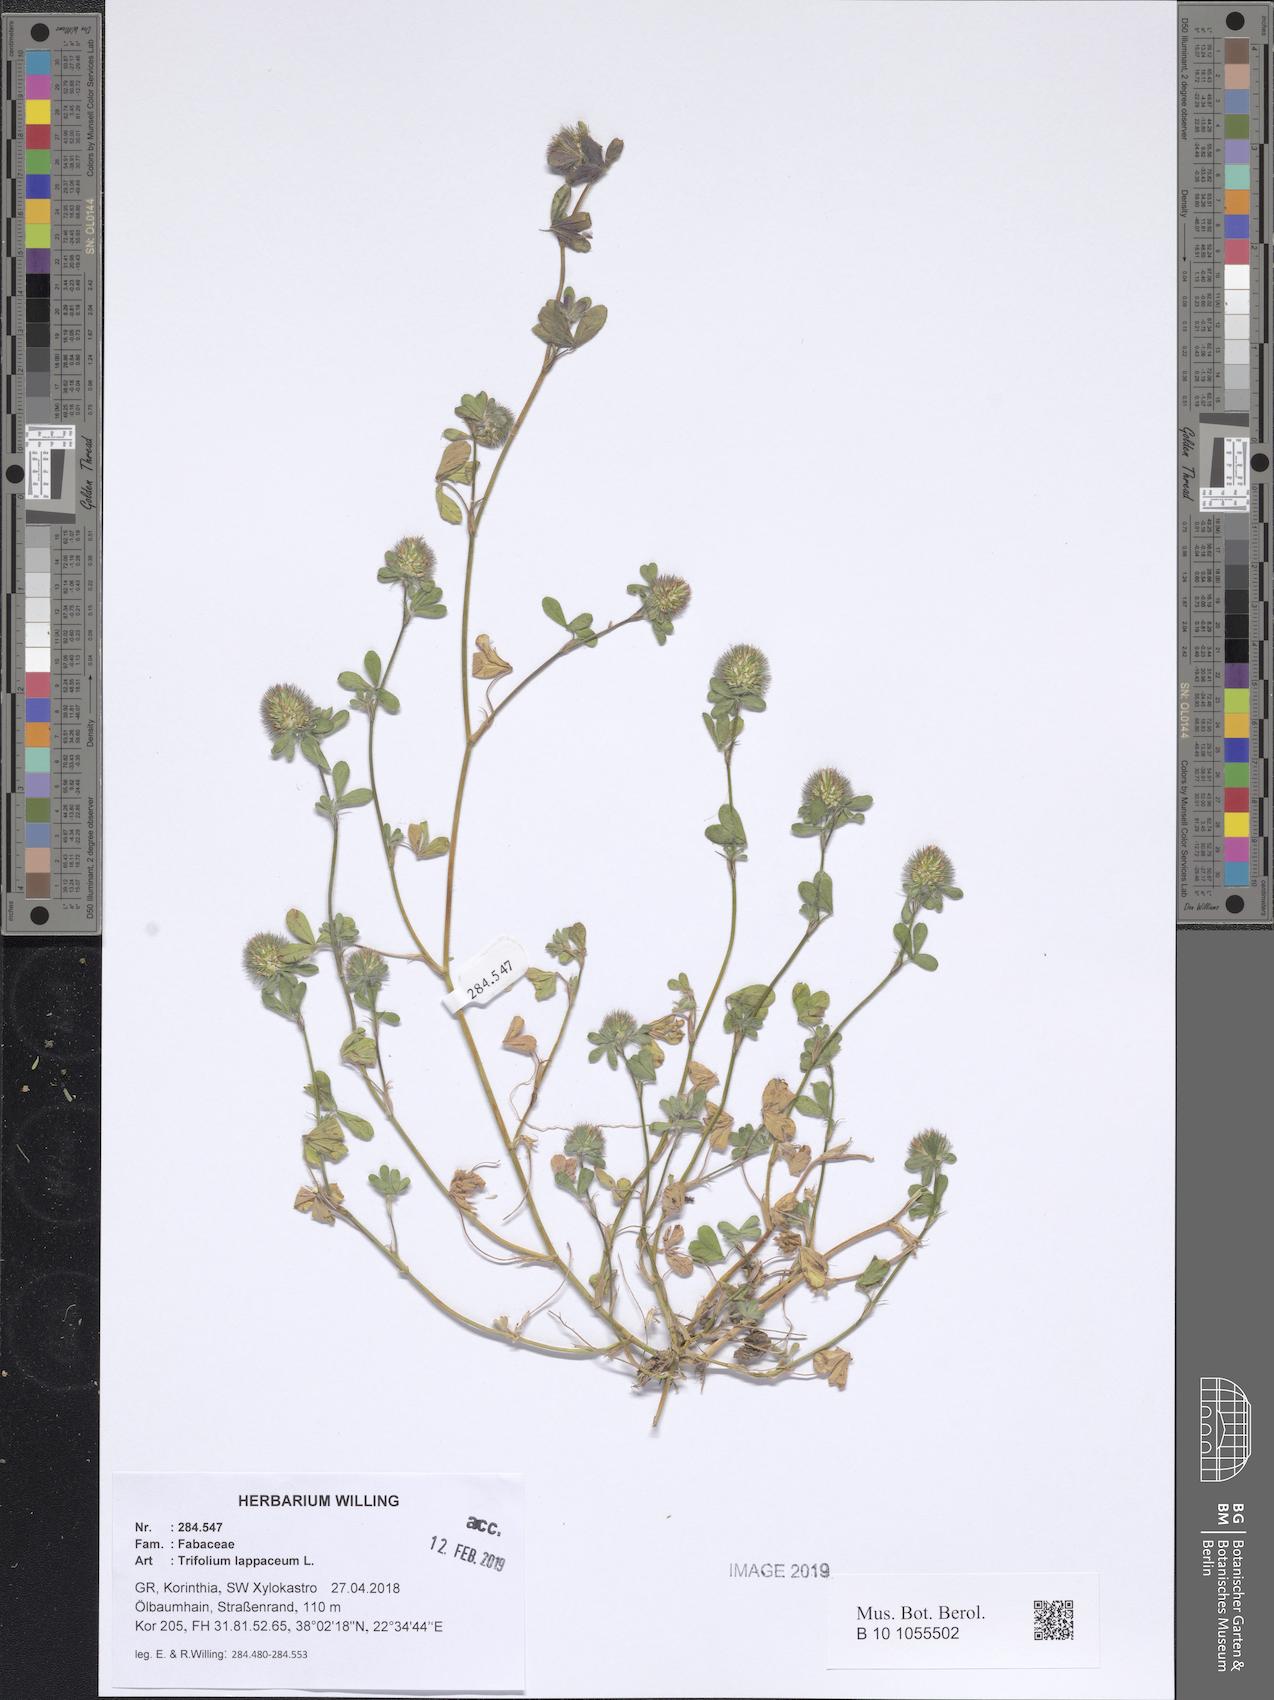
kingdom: Plantae
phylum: Tracheophyta
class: Magnoliopsida
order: Fabales
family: Fabaceae
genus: Trifolium
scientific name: Trifolium lappaceum
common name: Bur clover
